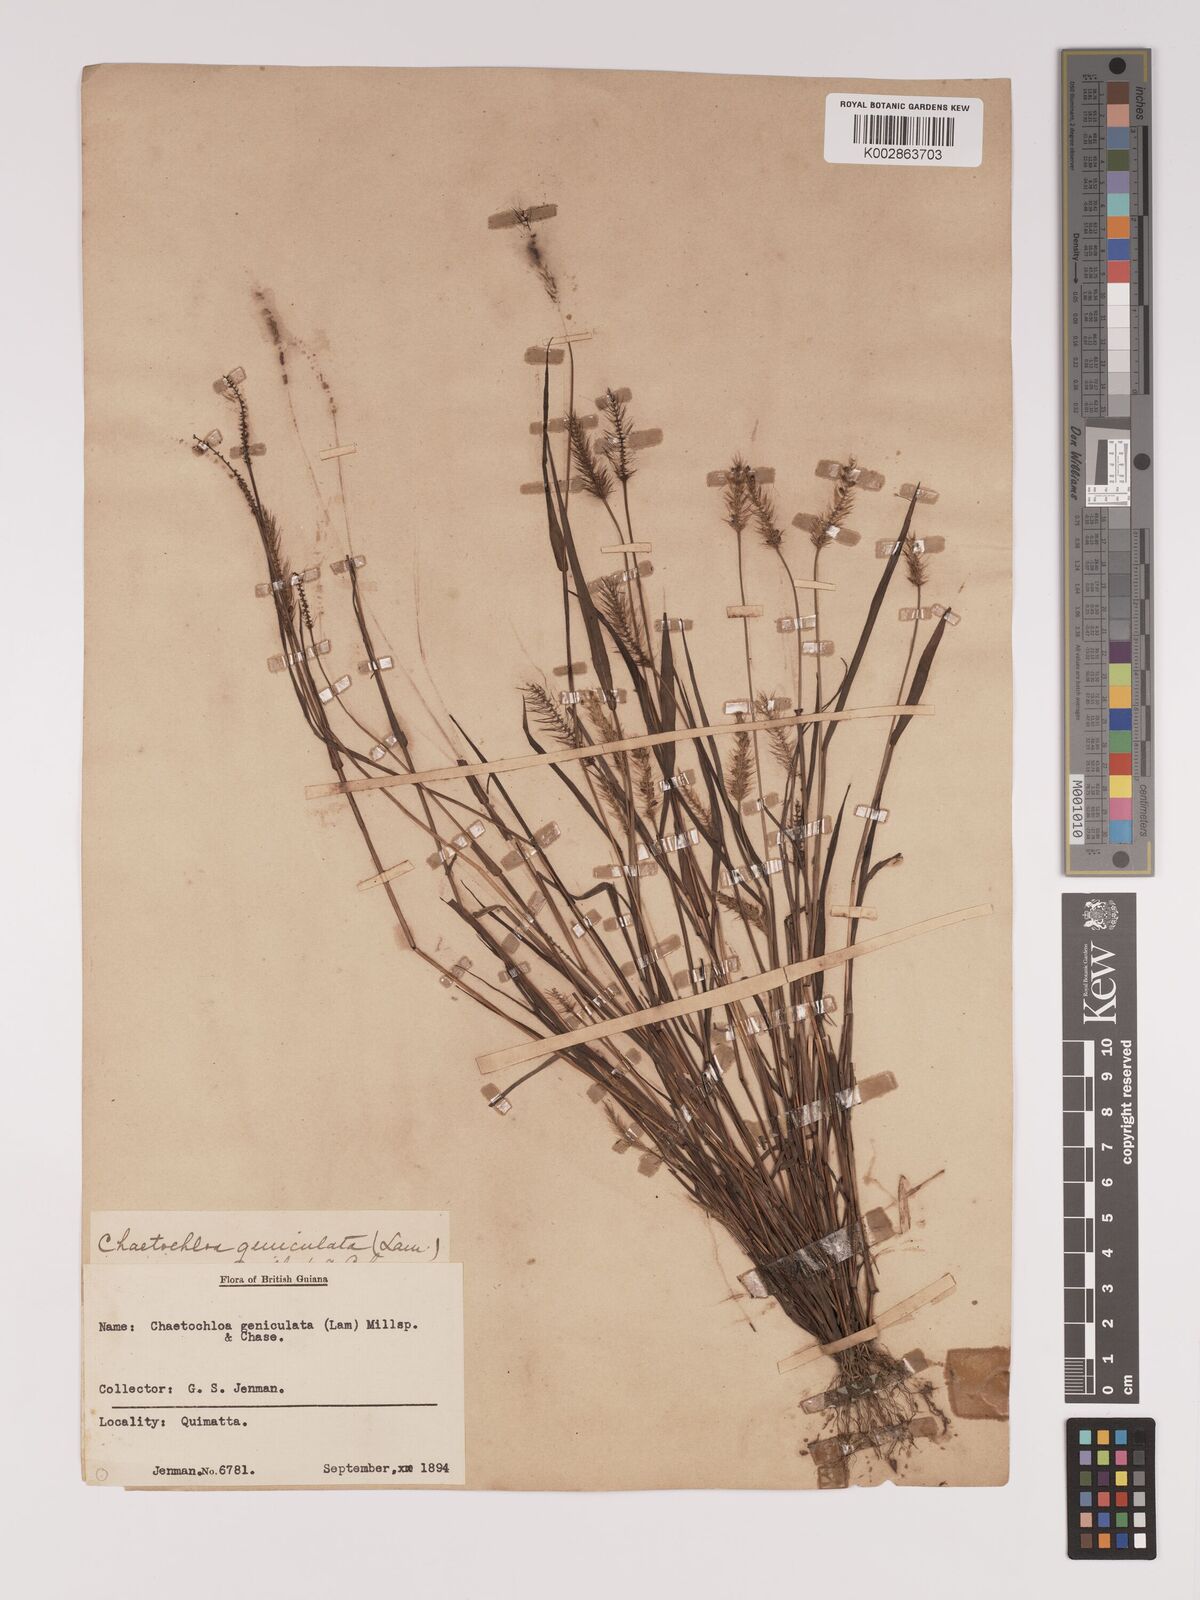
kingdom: Plantae
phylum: Tracheophyta
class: Liliopsida
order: Poales
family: Poaceae
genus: Setaria
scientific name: Setaria parviflora
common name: Knotroot bristle-grass
